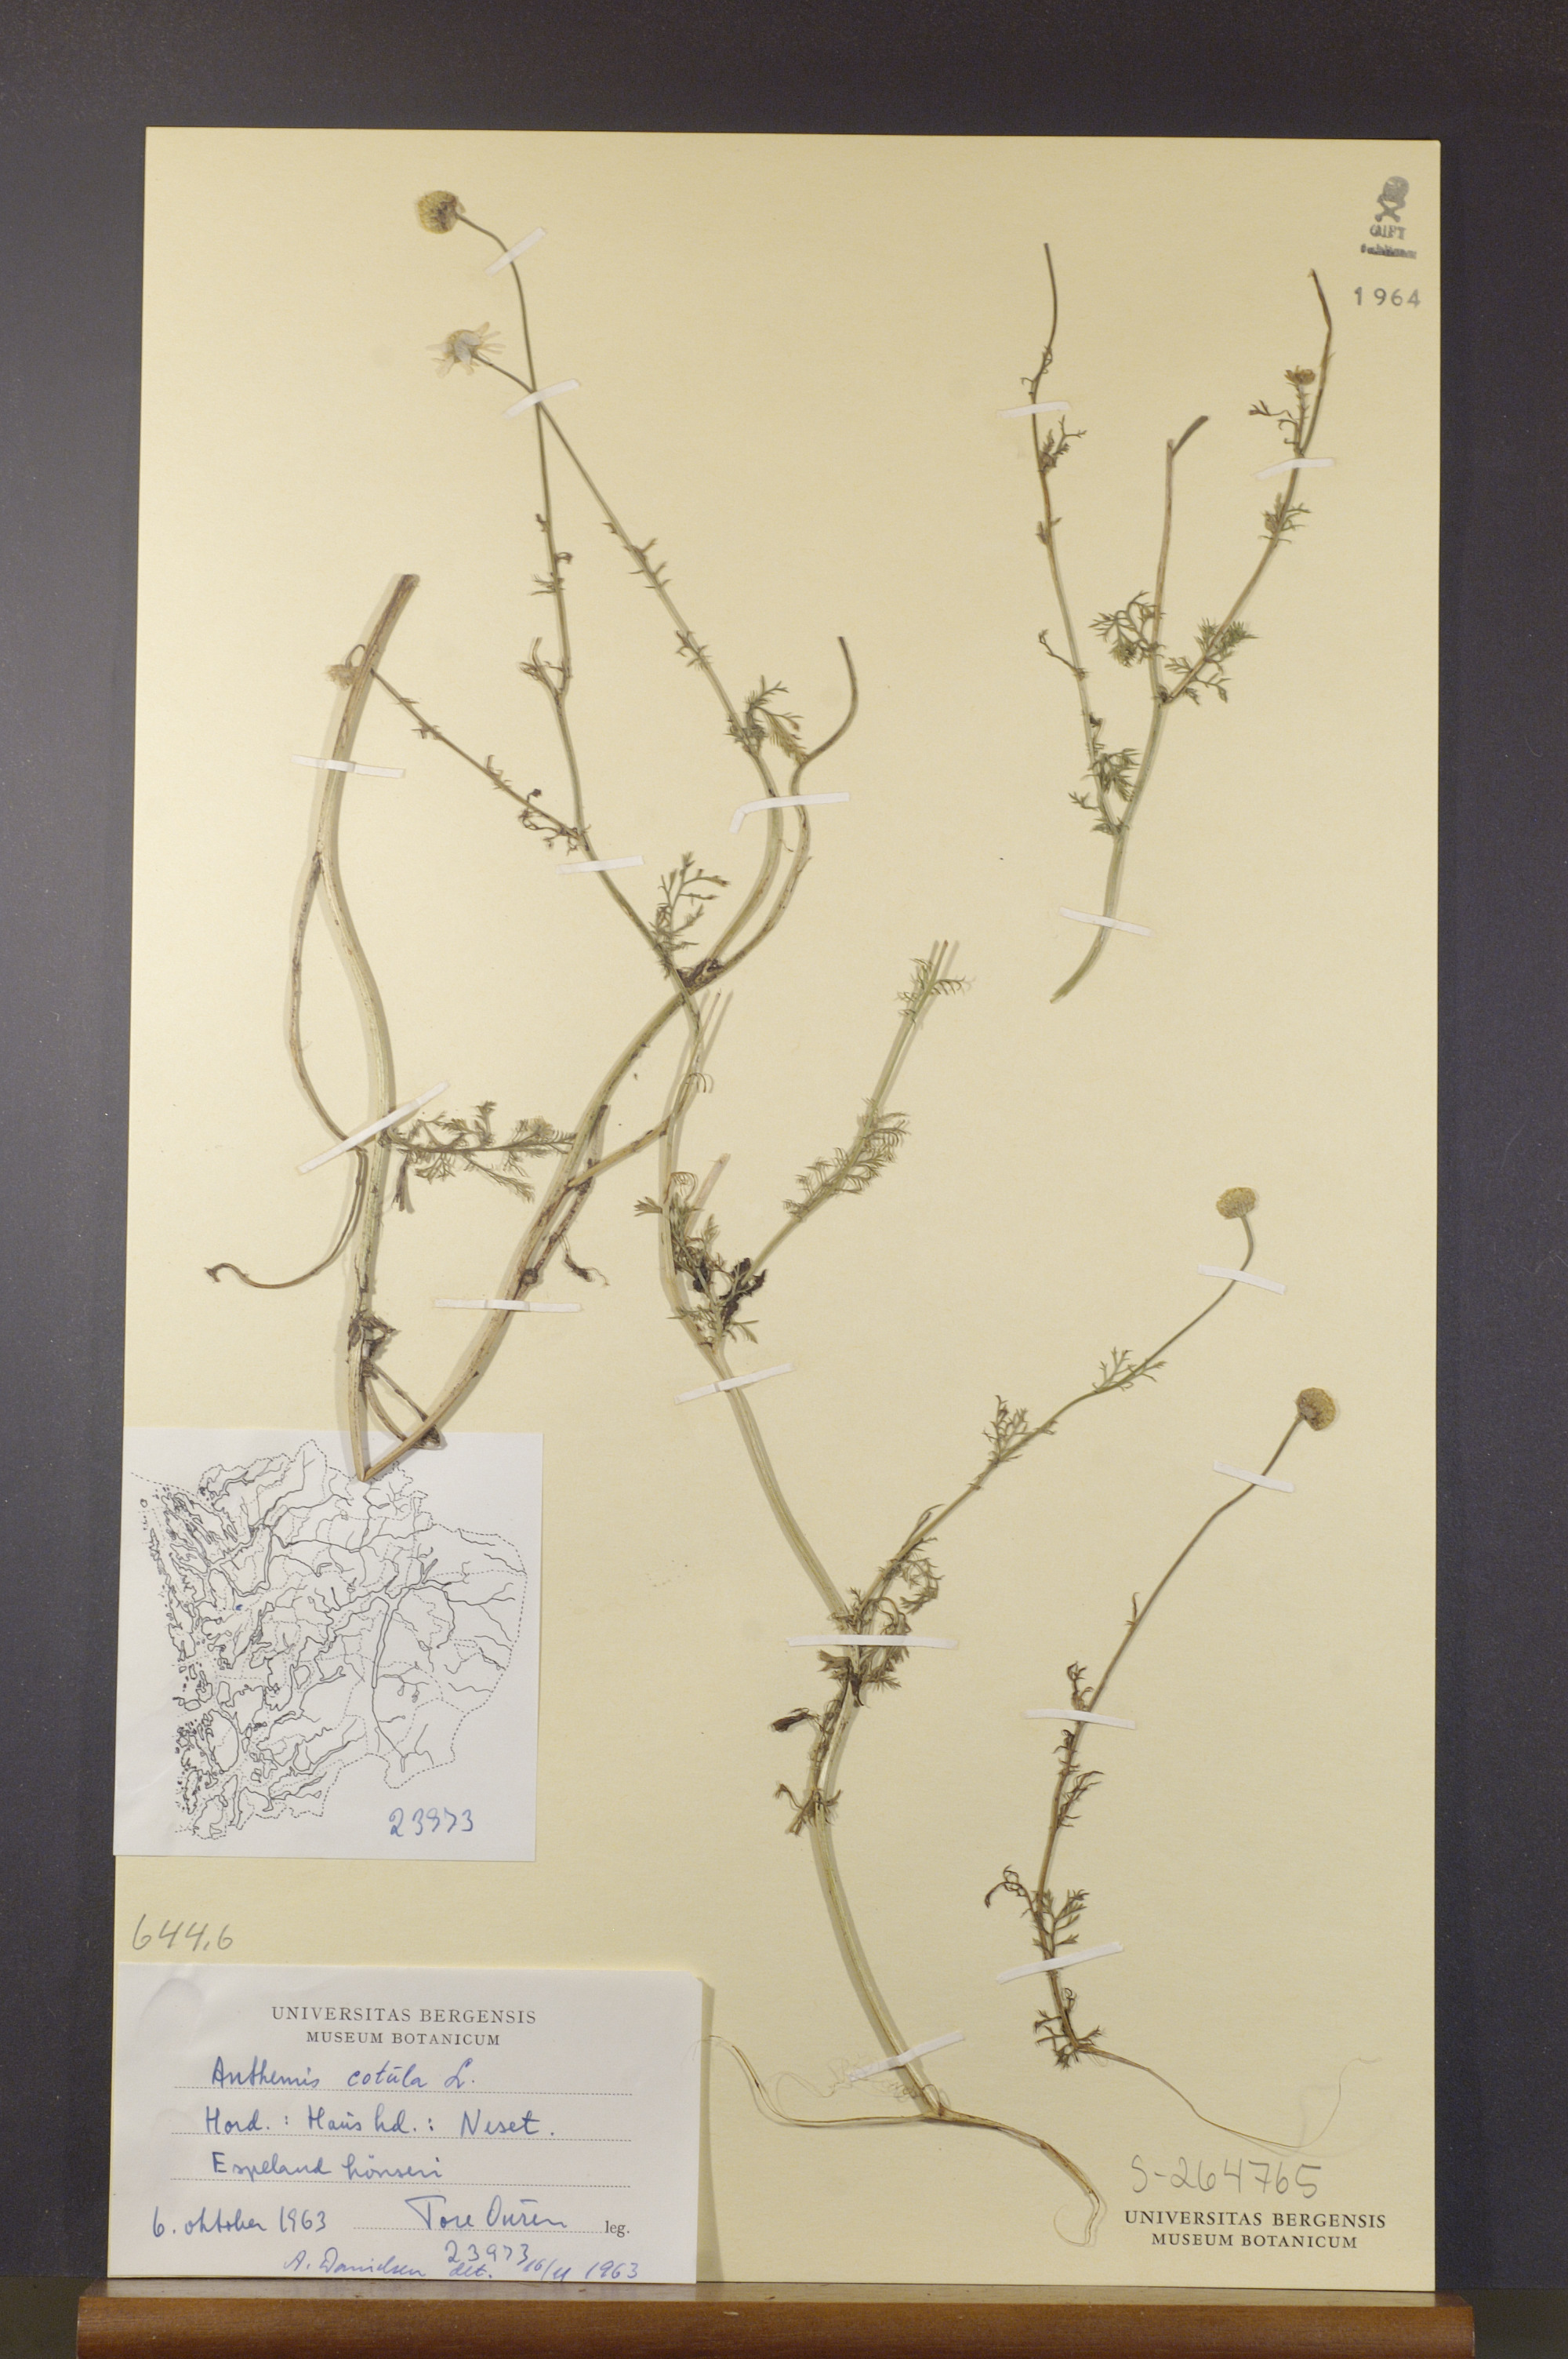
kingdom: Plantae
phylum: Tracheophyta
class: Magnoliopsida
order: Asterales
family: Asteraceae
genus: Anthemis
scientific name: Anthemis cotula
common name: Stinking chamomile
